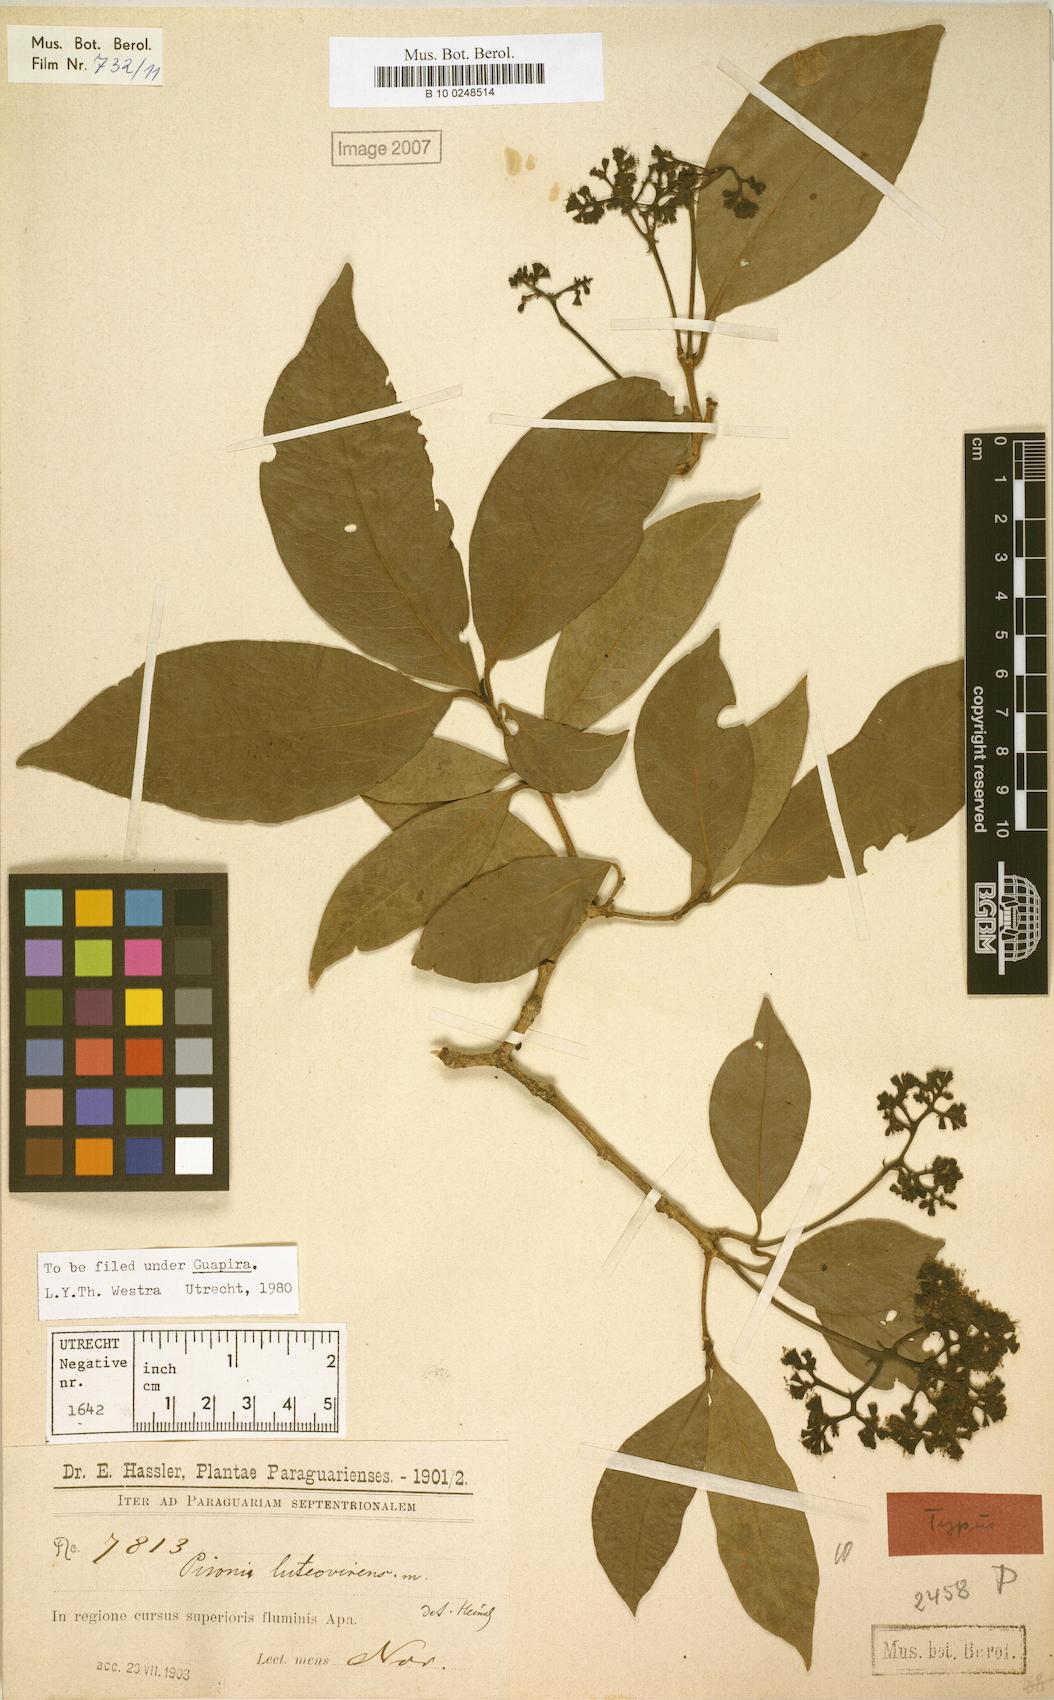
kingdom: Plantae
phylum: Tracheophyta
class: Magnoliopsida
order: Caryophyllales
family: Nyctaginaceae
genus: Guapira
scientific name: Guapira areolata
